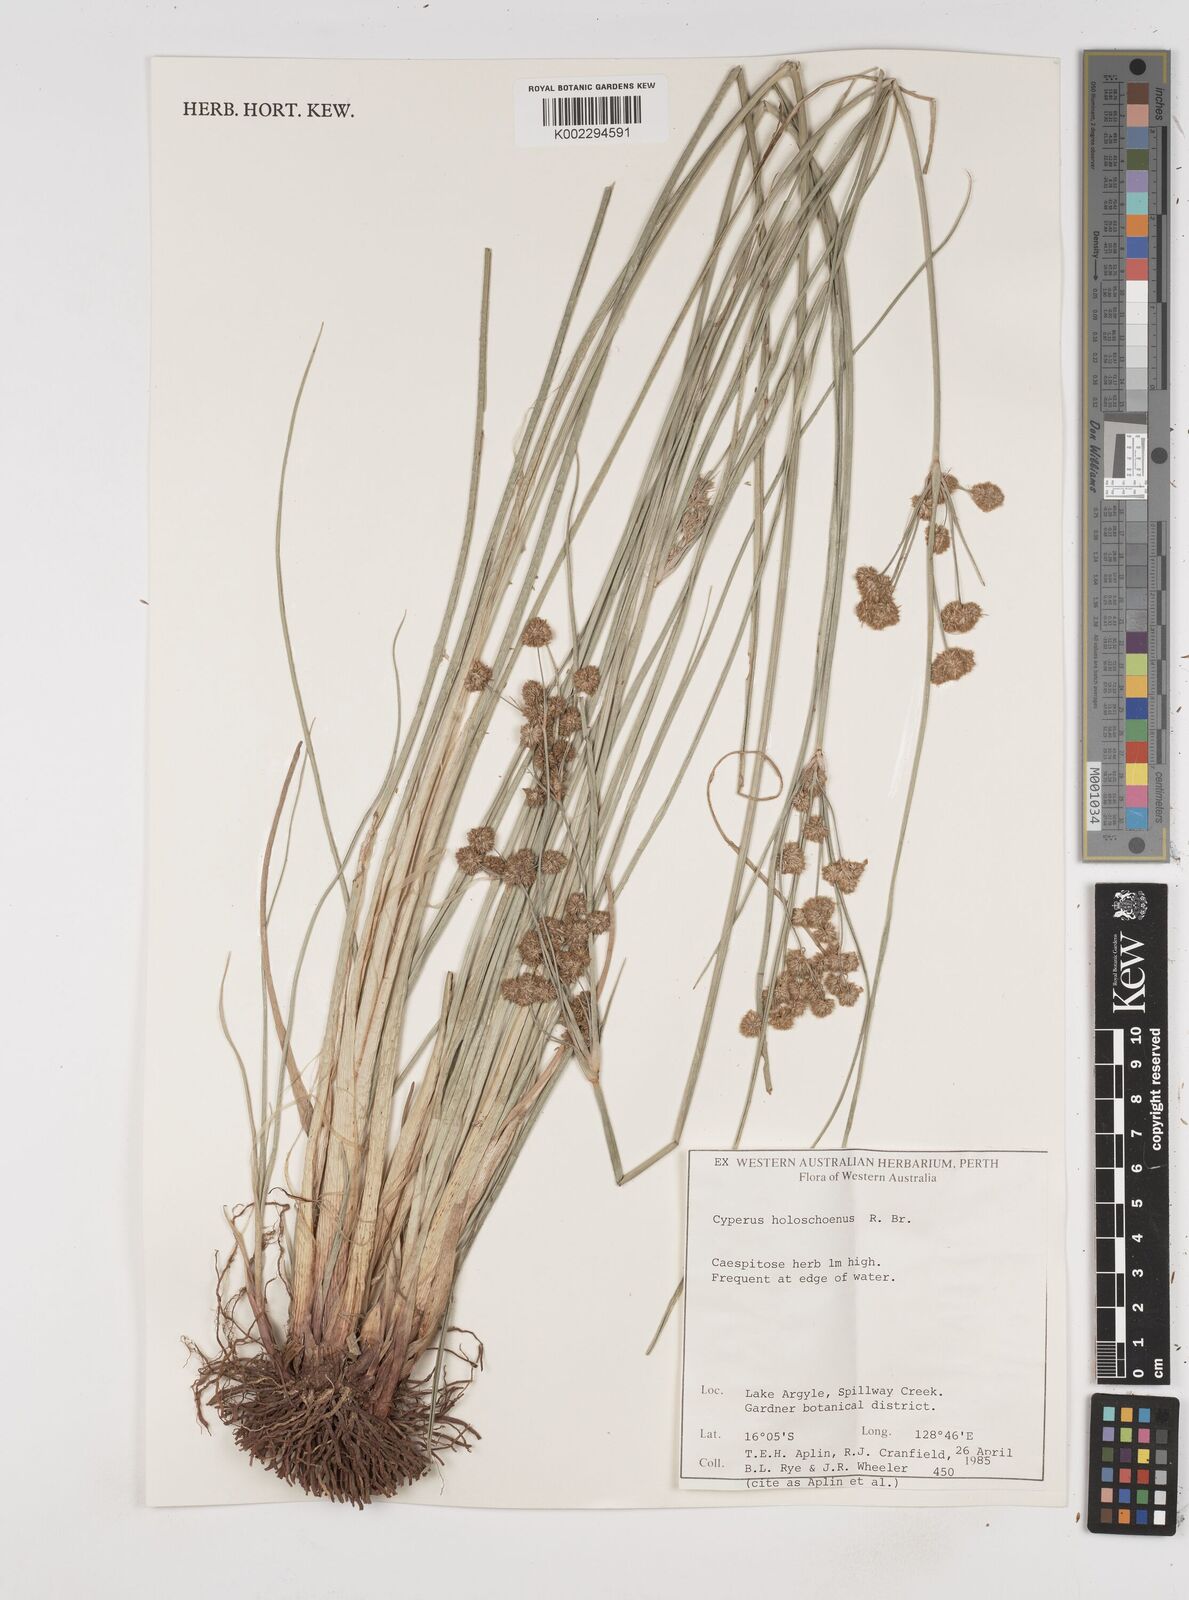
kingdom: Plantae
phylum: Tracheophyta
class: Liliopsida
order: Poales
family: Cyperaceae
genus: Cyperus
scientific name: Cyperus holoschoenus
